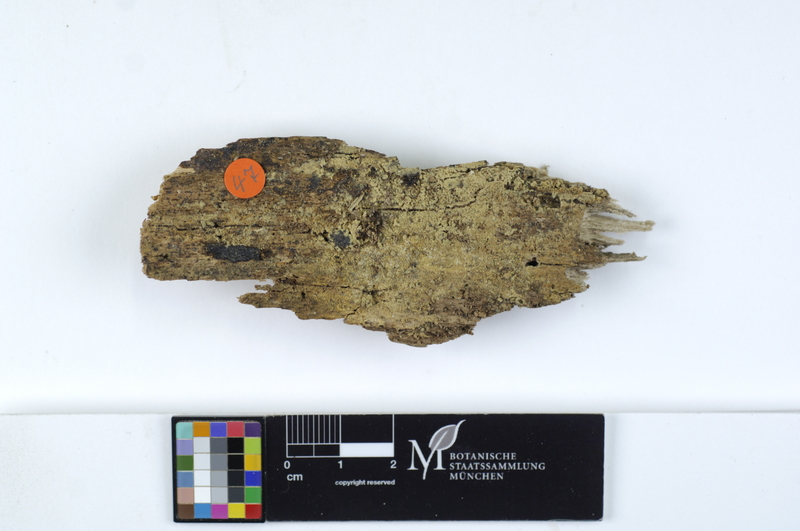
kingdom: Plantae
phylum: Tracheophyta
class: Magnoliopsida
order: Fagales
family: Fagaceae
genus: Fagus
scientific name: Fagus sylvatica
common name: Beech
